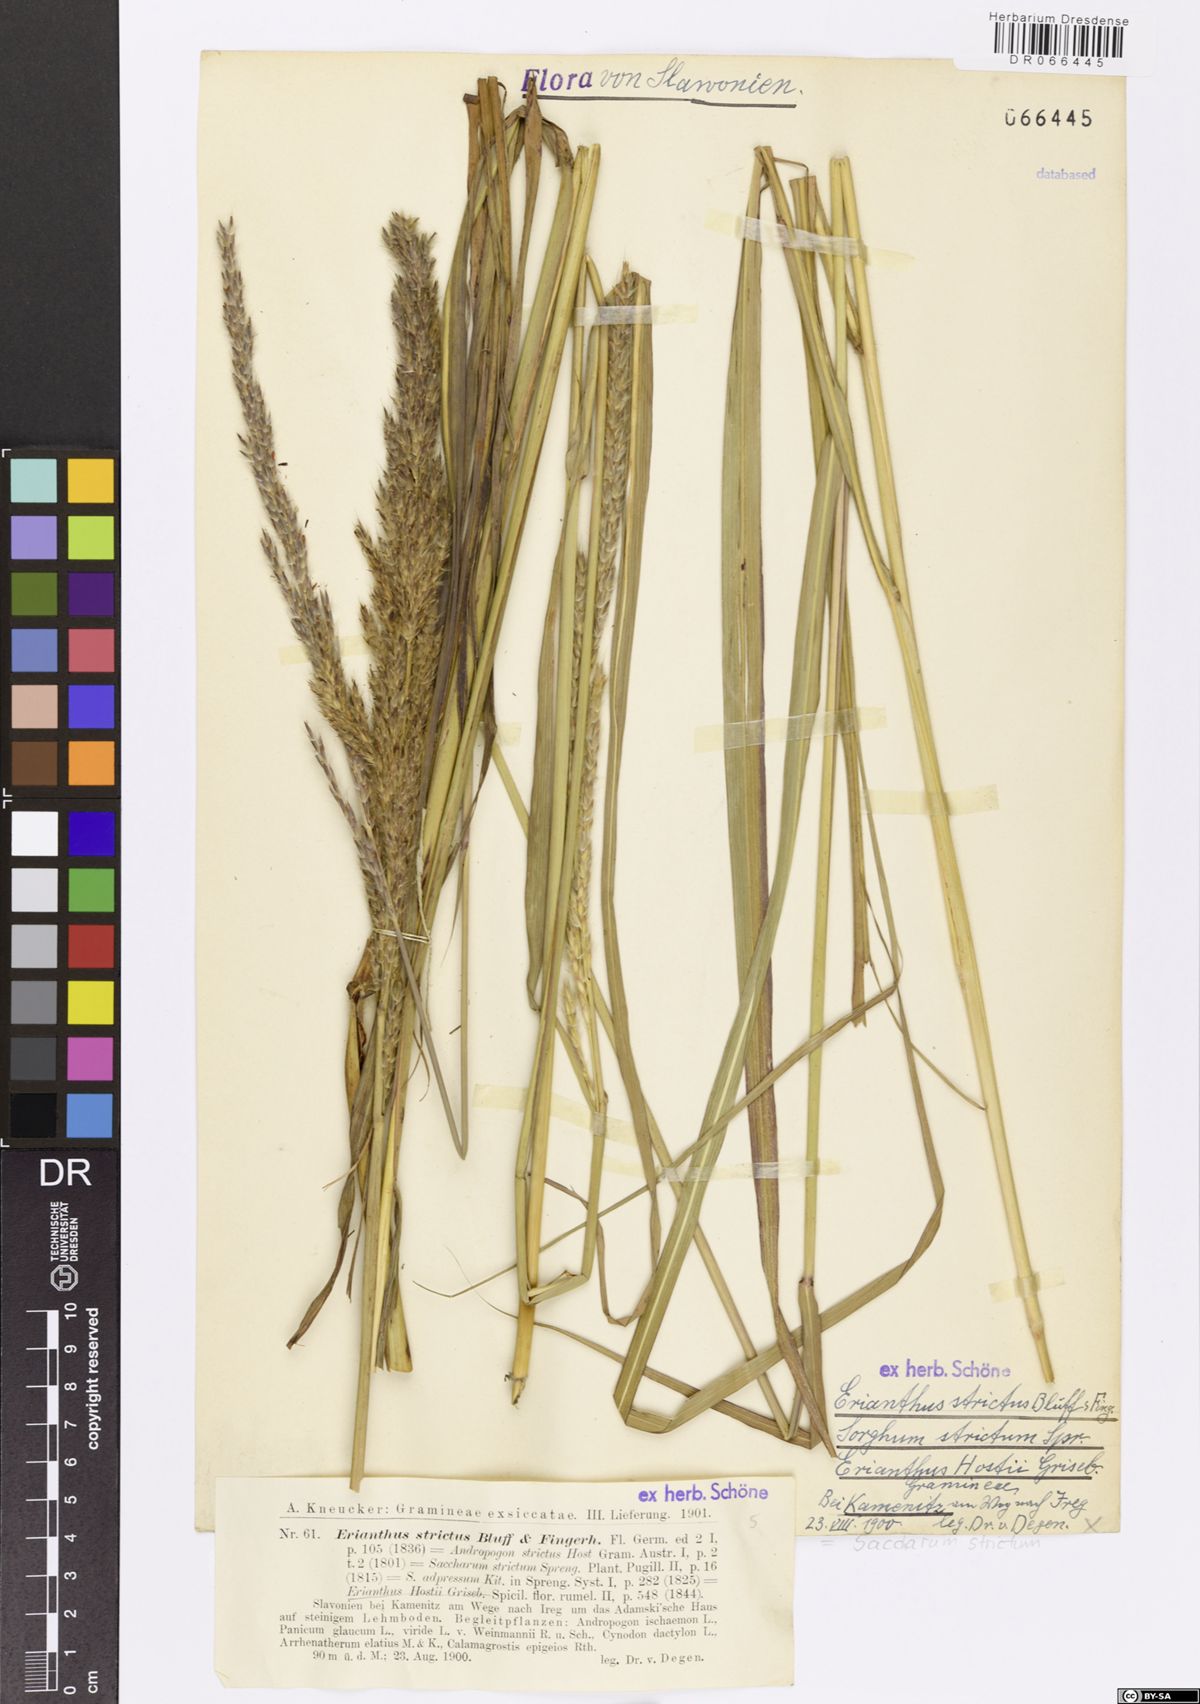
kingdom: Plantae
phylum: Tracheophyta
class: Liliopsida
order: Poales
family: Poaceae
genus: Tripidium
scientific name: Tripidium strictum
